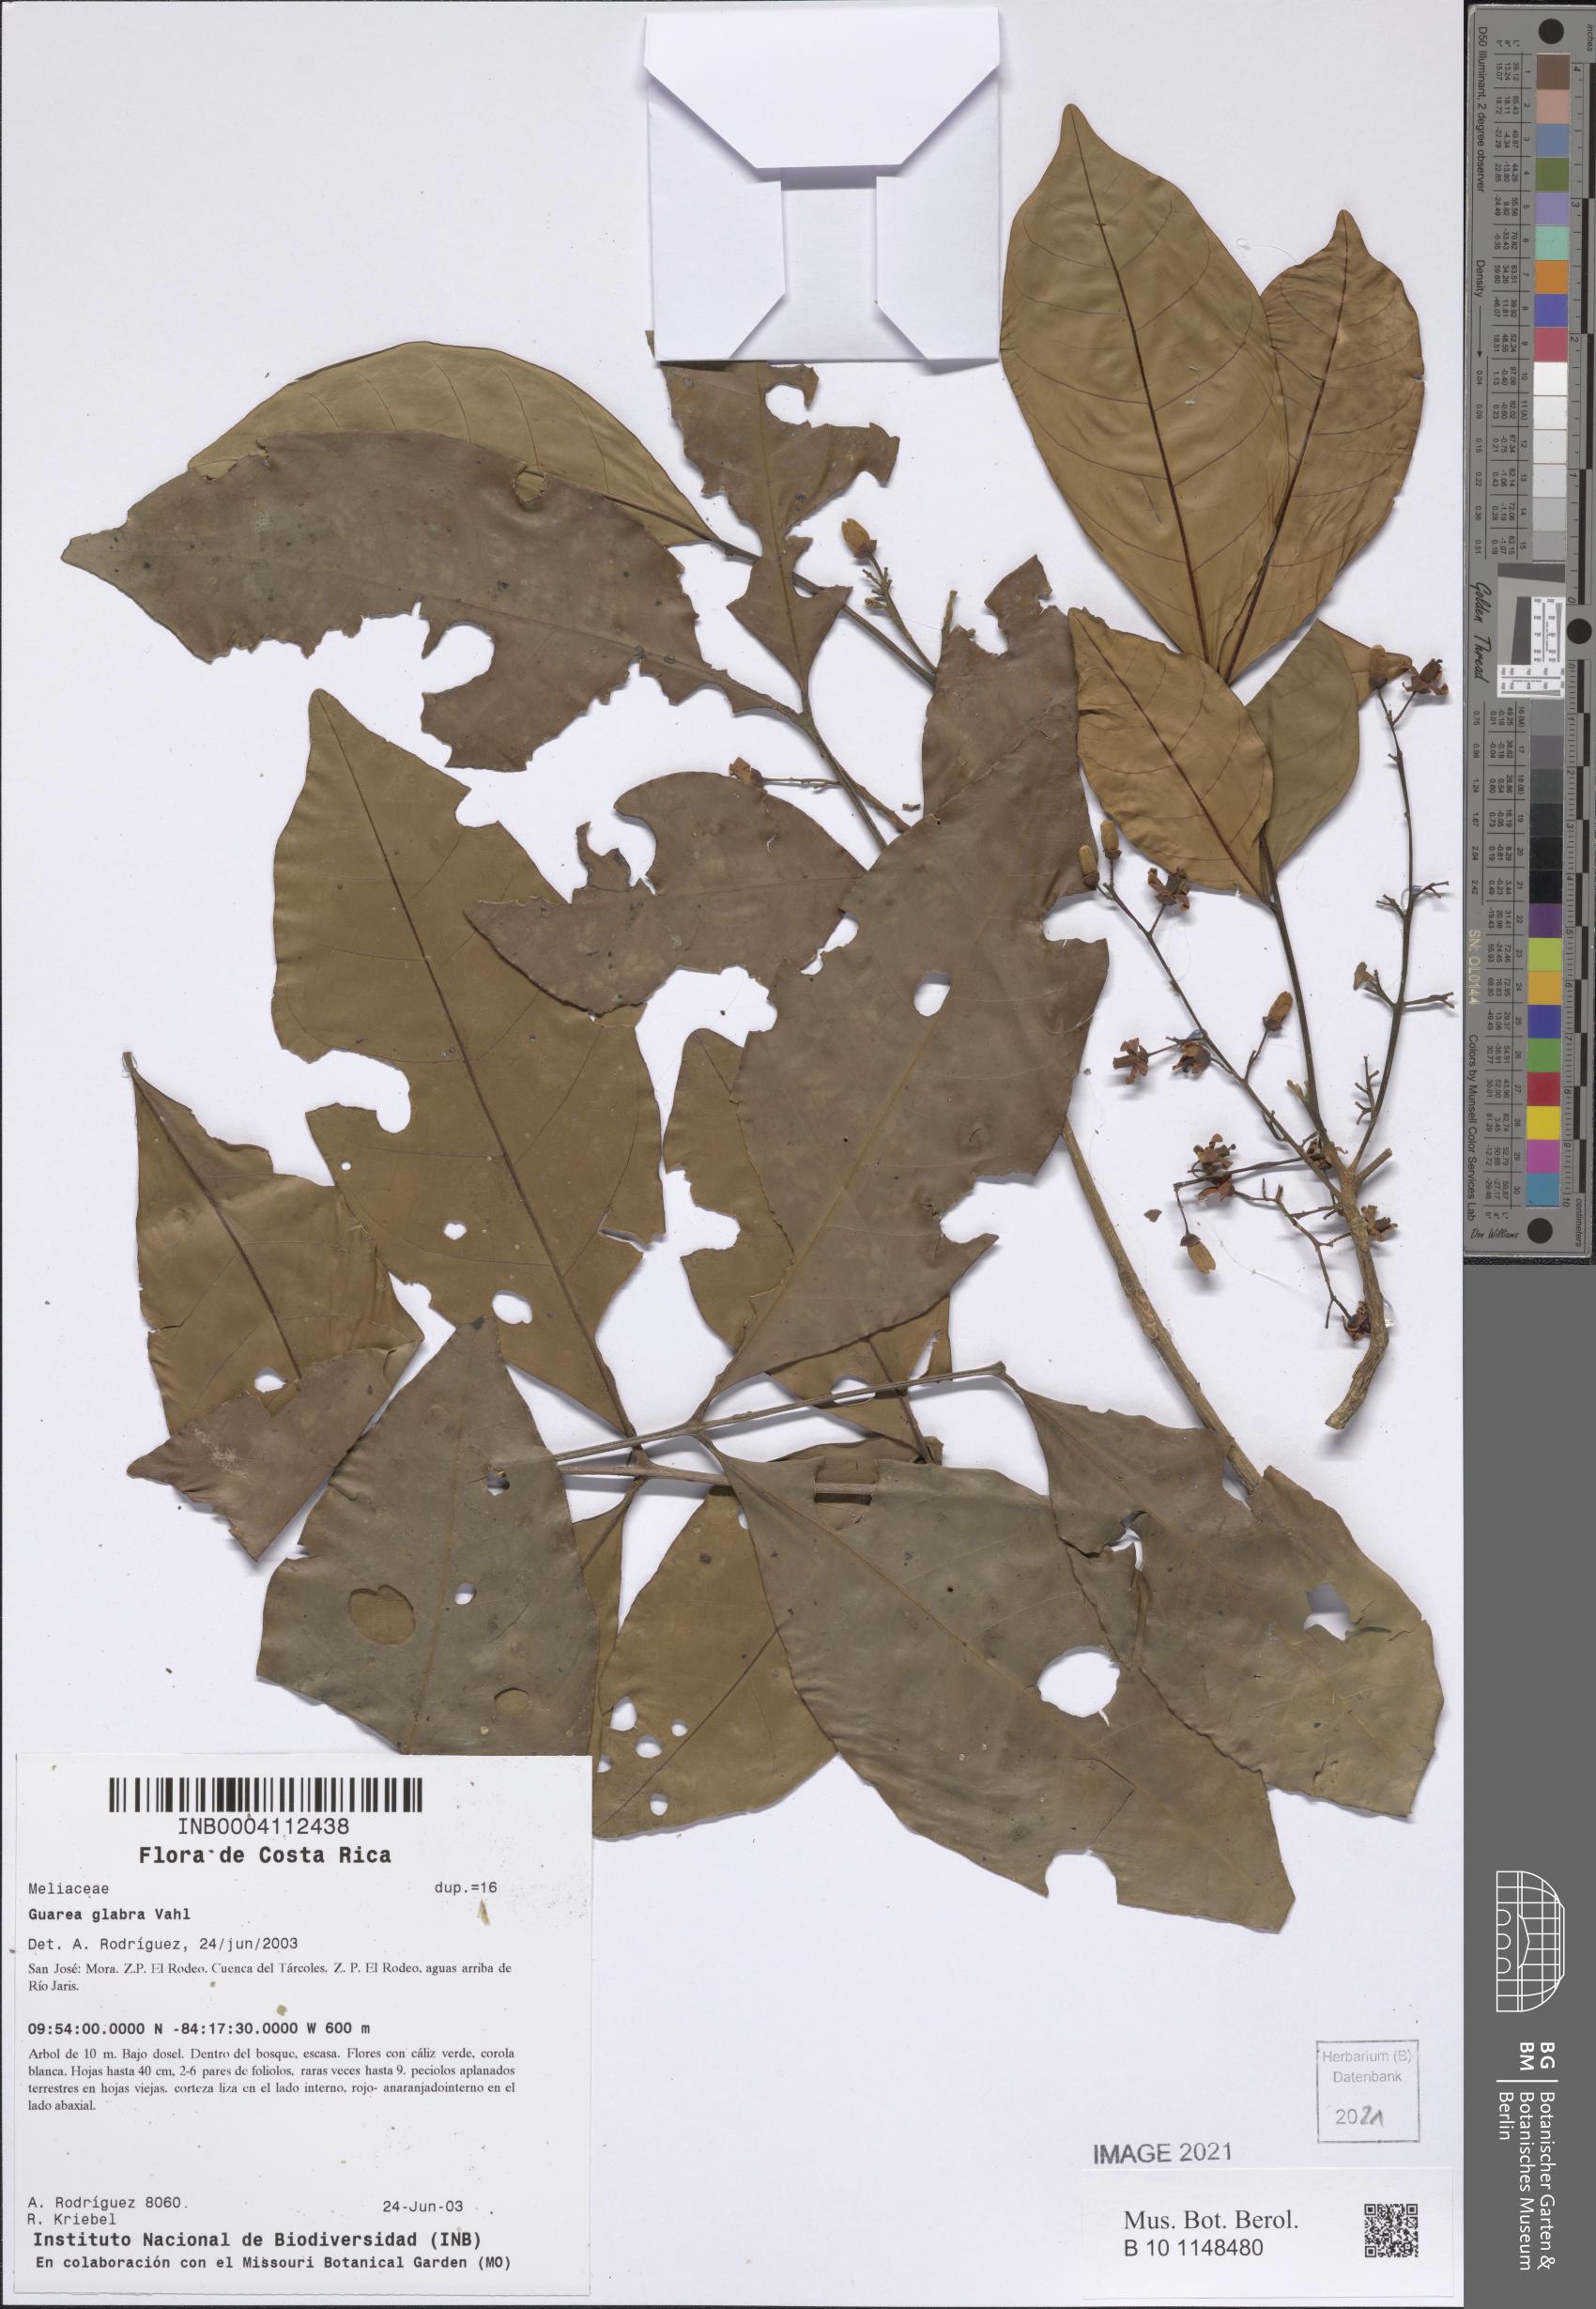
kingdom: Plantae
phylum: Tracheophyta
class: Magnoliopsida
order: Sapindales
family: Meliaceae
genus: Guarea
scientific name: Guarea kunthiana
